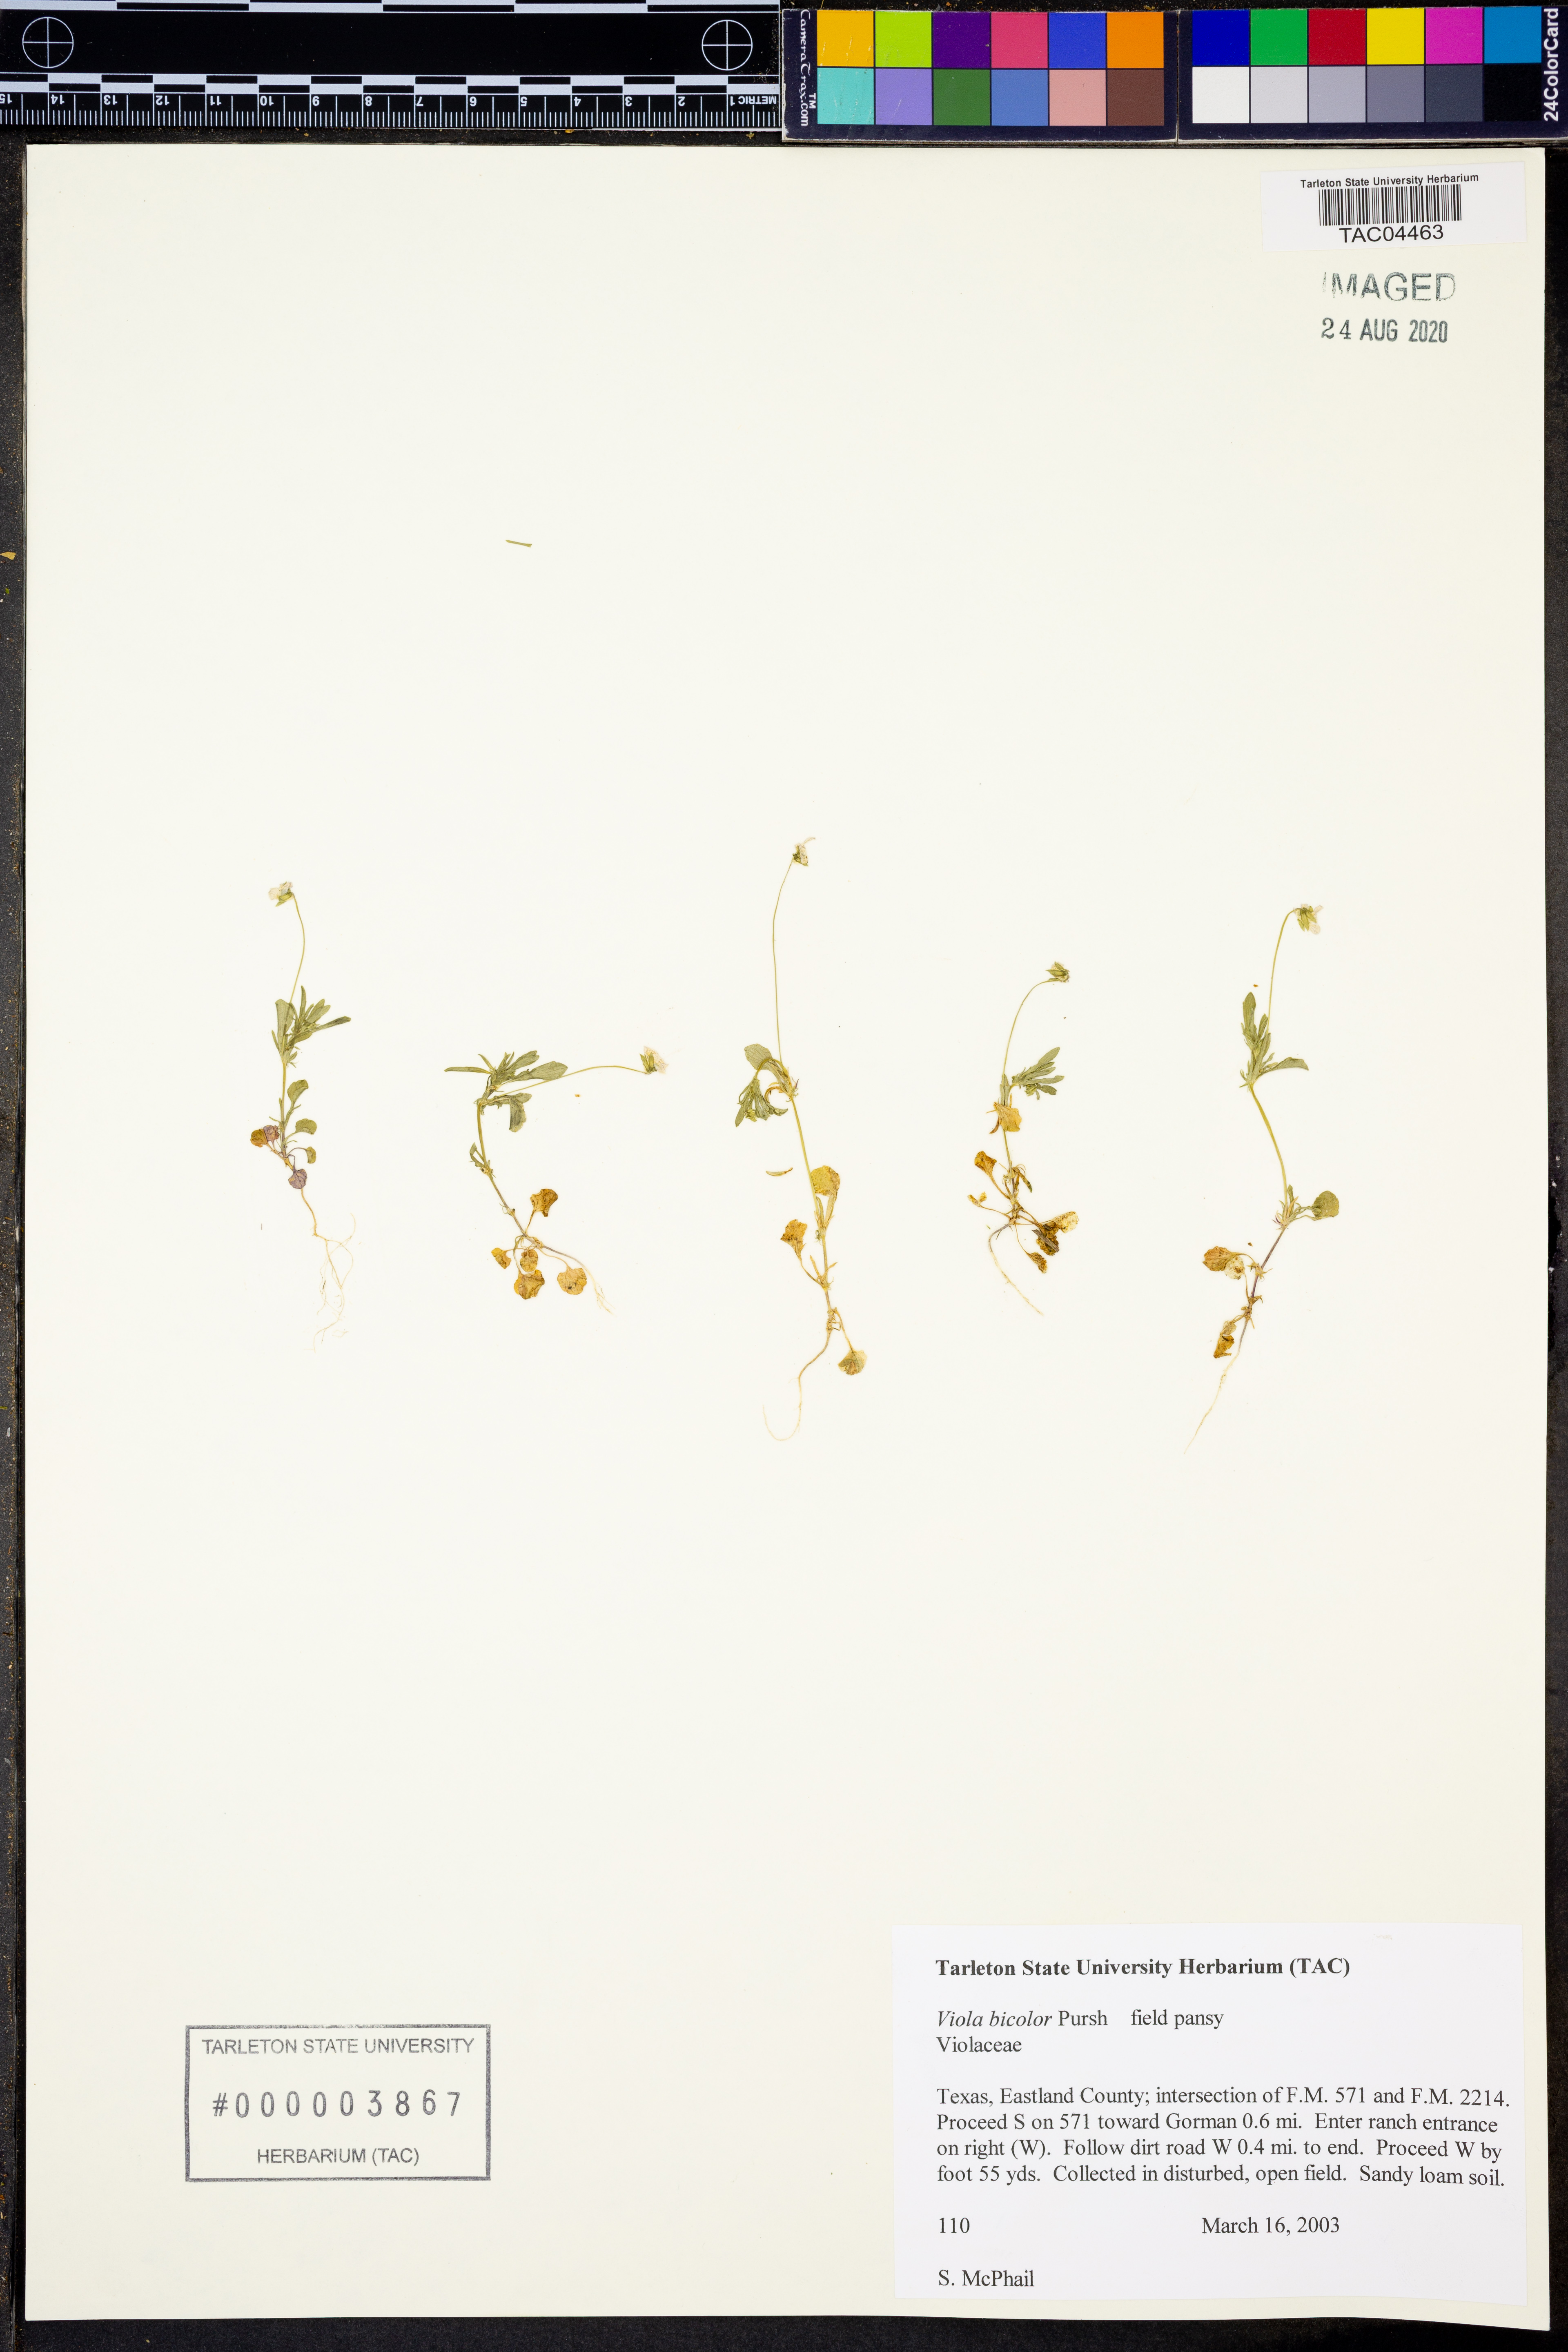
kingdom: Plantae
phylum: Tracheophyta
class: Magnoliopsida
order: Malpighiales
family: Violaceae
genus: Viola
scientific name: Viola rafinesquei
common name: American field pansy
